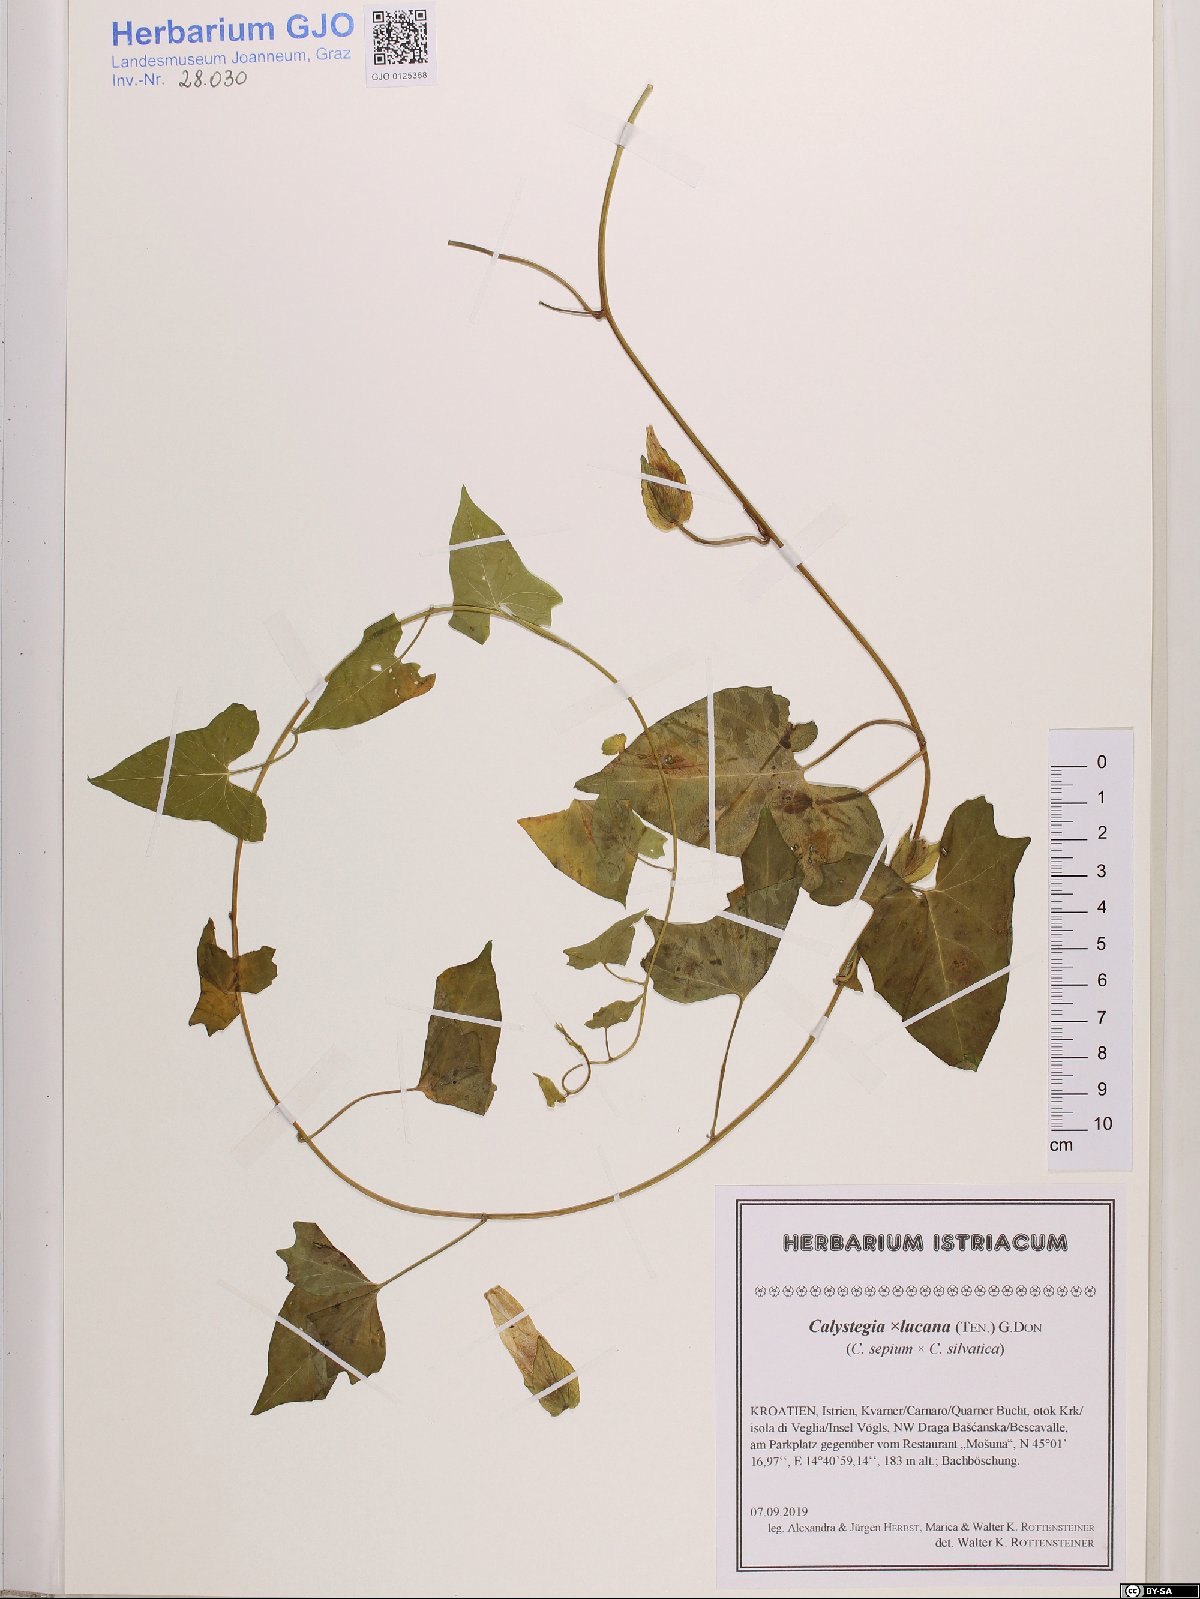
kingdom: Plantae
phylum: Tracheophyta
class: Magnoliopsida
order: Solanales
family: Convolvulaceae
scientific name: Convolvulaceae
